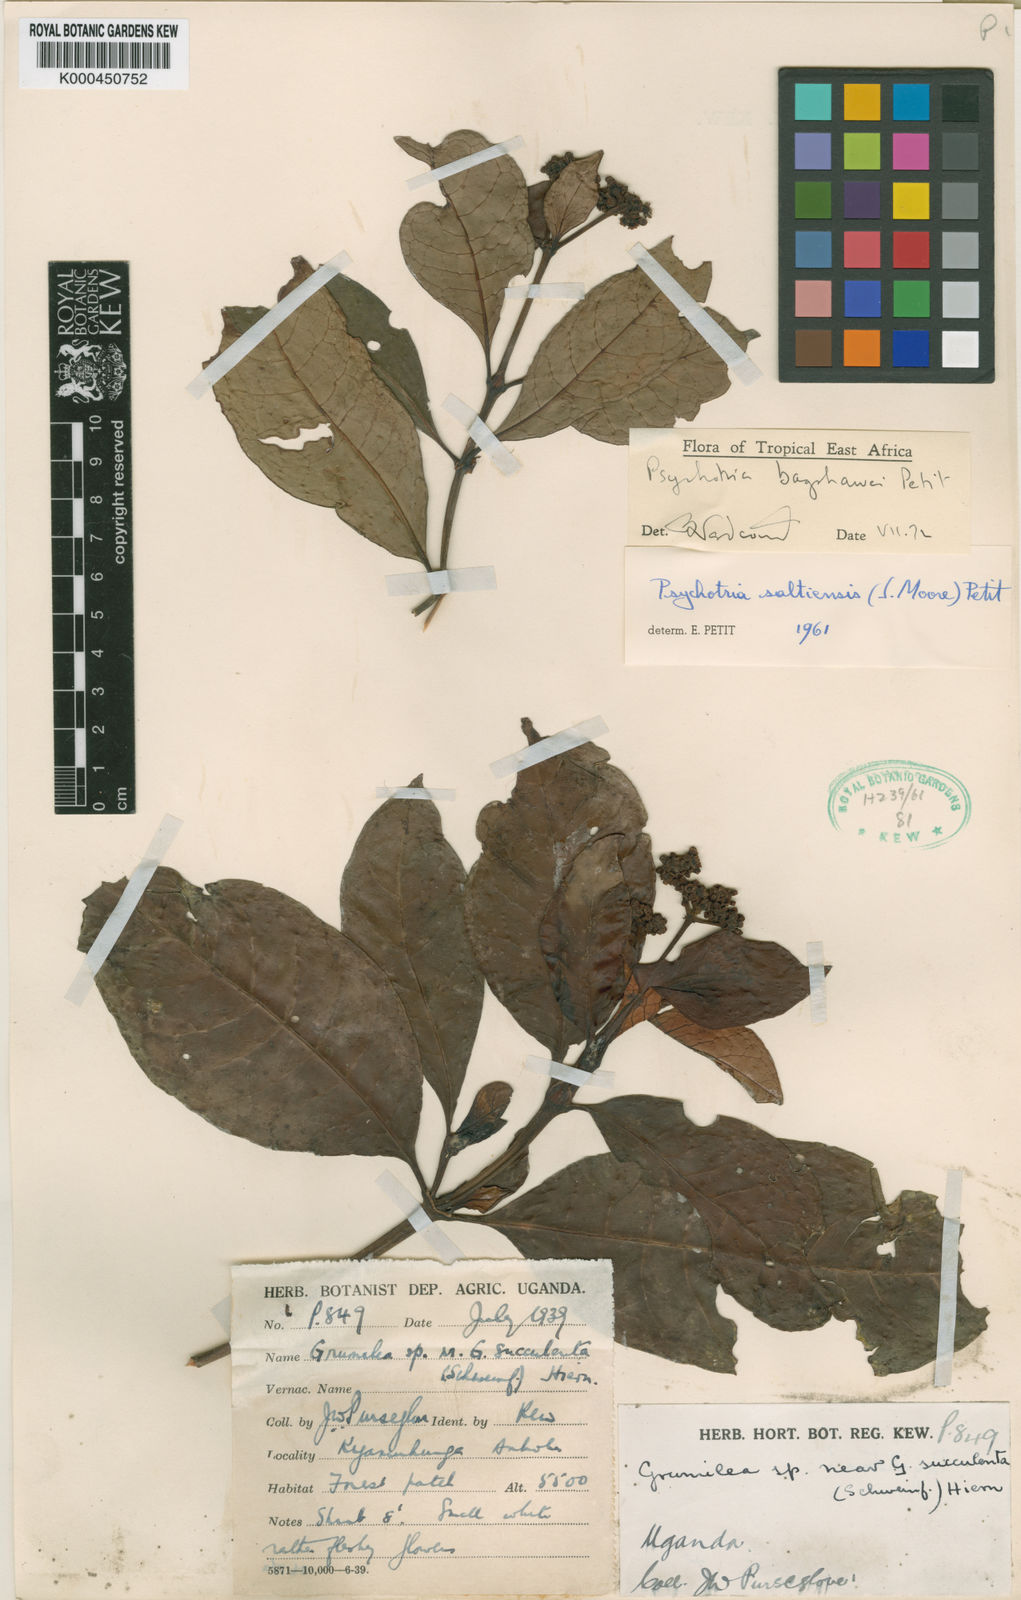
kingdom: Plantae
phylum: Tracheophyta
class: Magnoliopsida
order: Gentianales
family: Rubiaceae
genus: Psychotria
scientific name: Psychotria bagshawei
